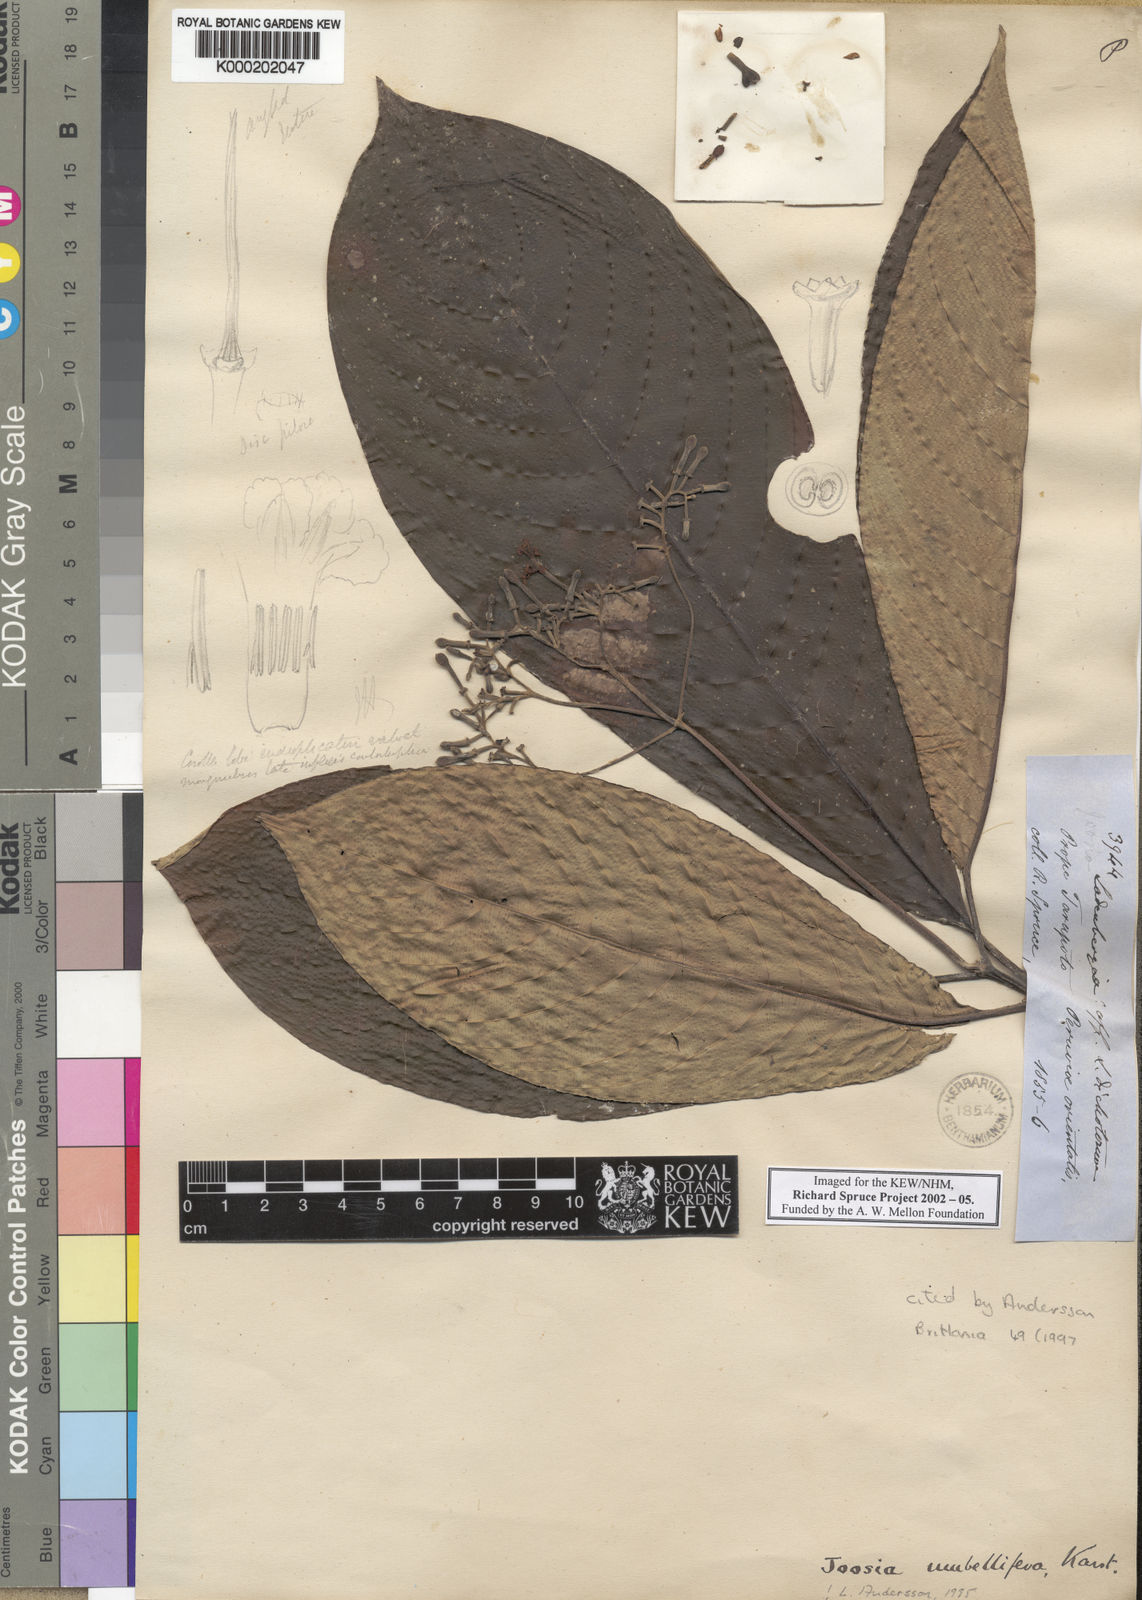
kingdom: Plantae
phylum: Tracheophyta
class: Magnoliopsida
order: Gentianales
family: Rubiaceae
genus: Joosia
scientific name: Joosia umbellifera
